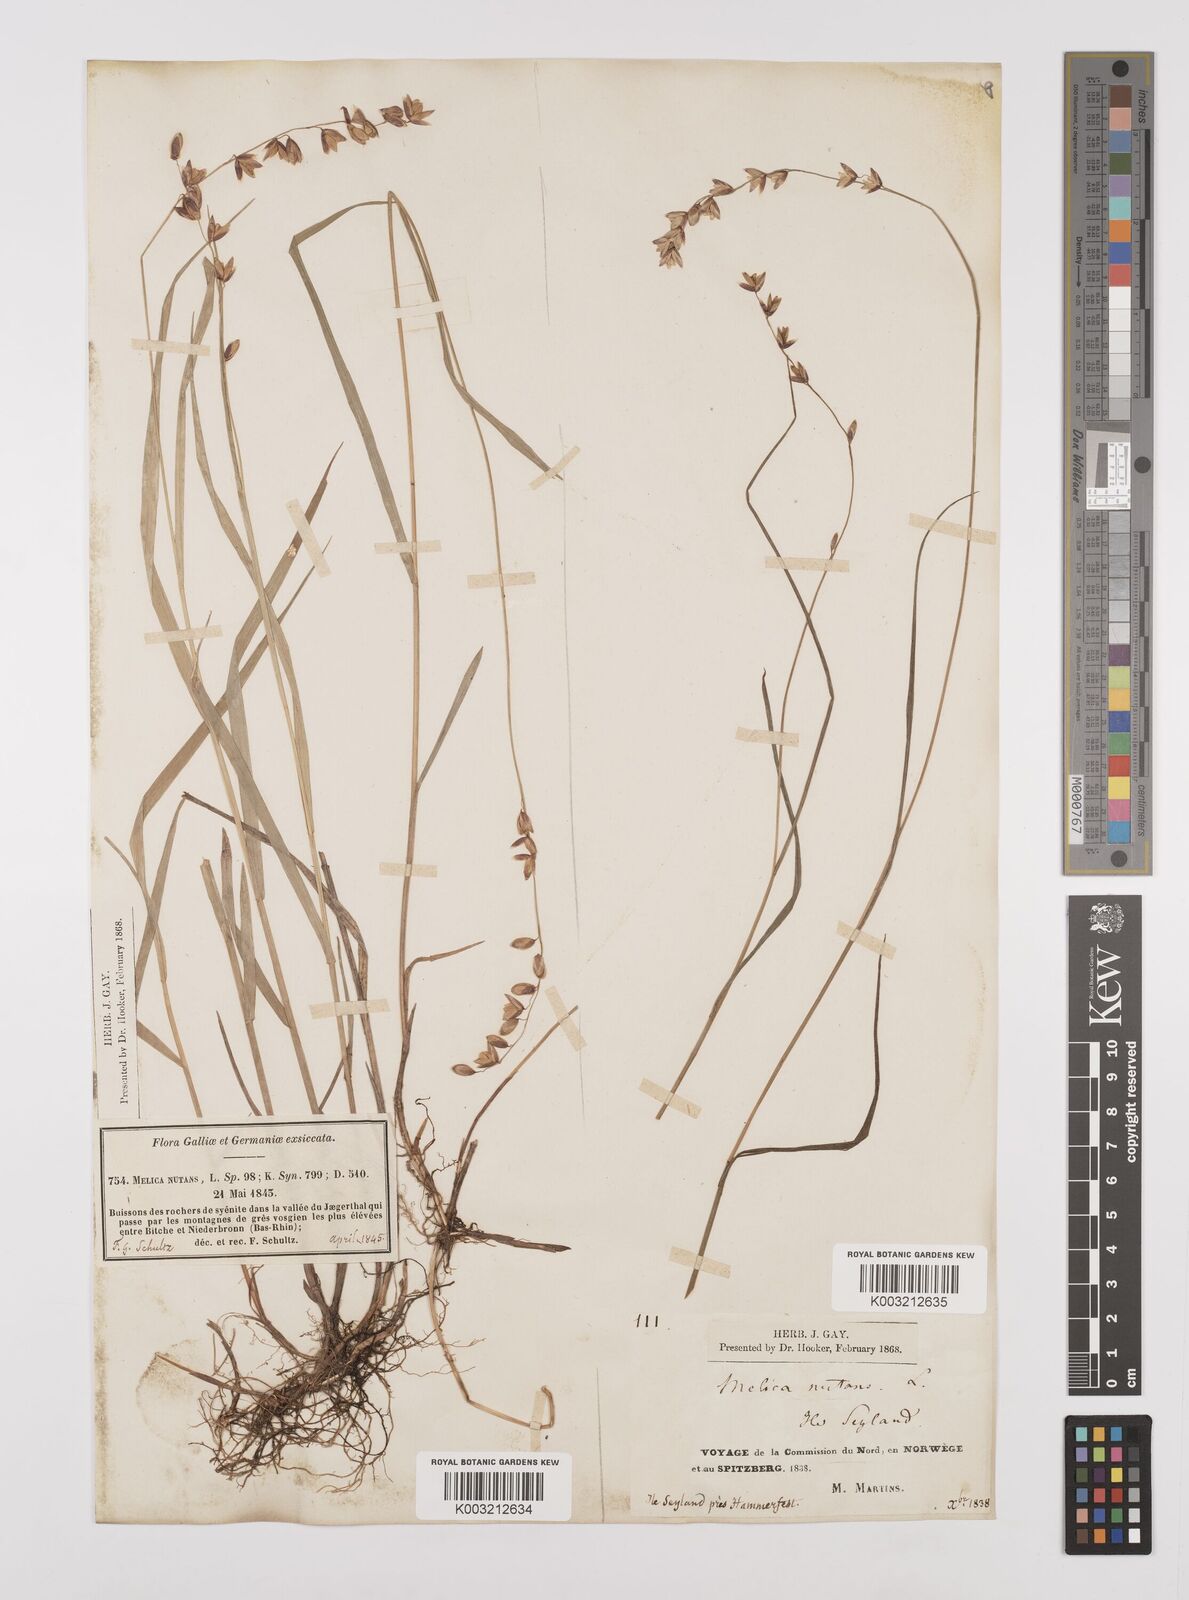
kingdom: Plantae
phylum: Tracheophyta
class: Liliopsida
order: Poales
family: Poaceae
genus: Melica
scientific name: Melica
